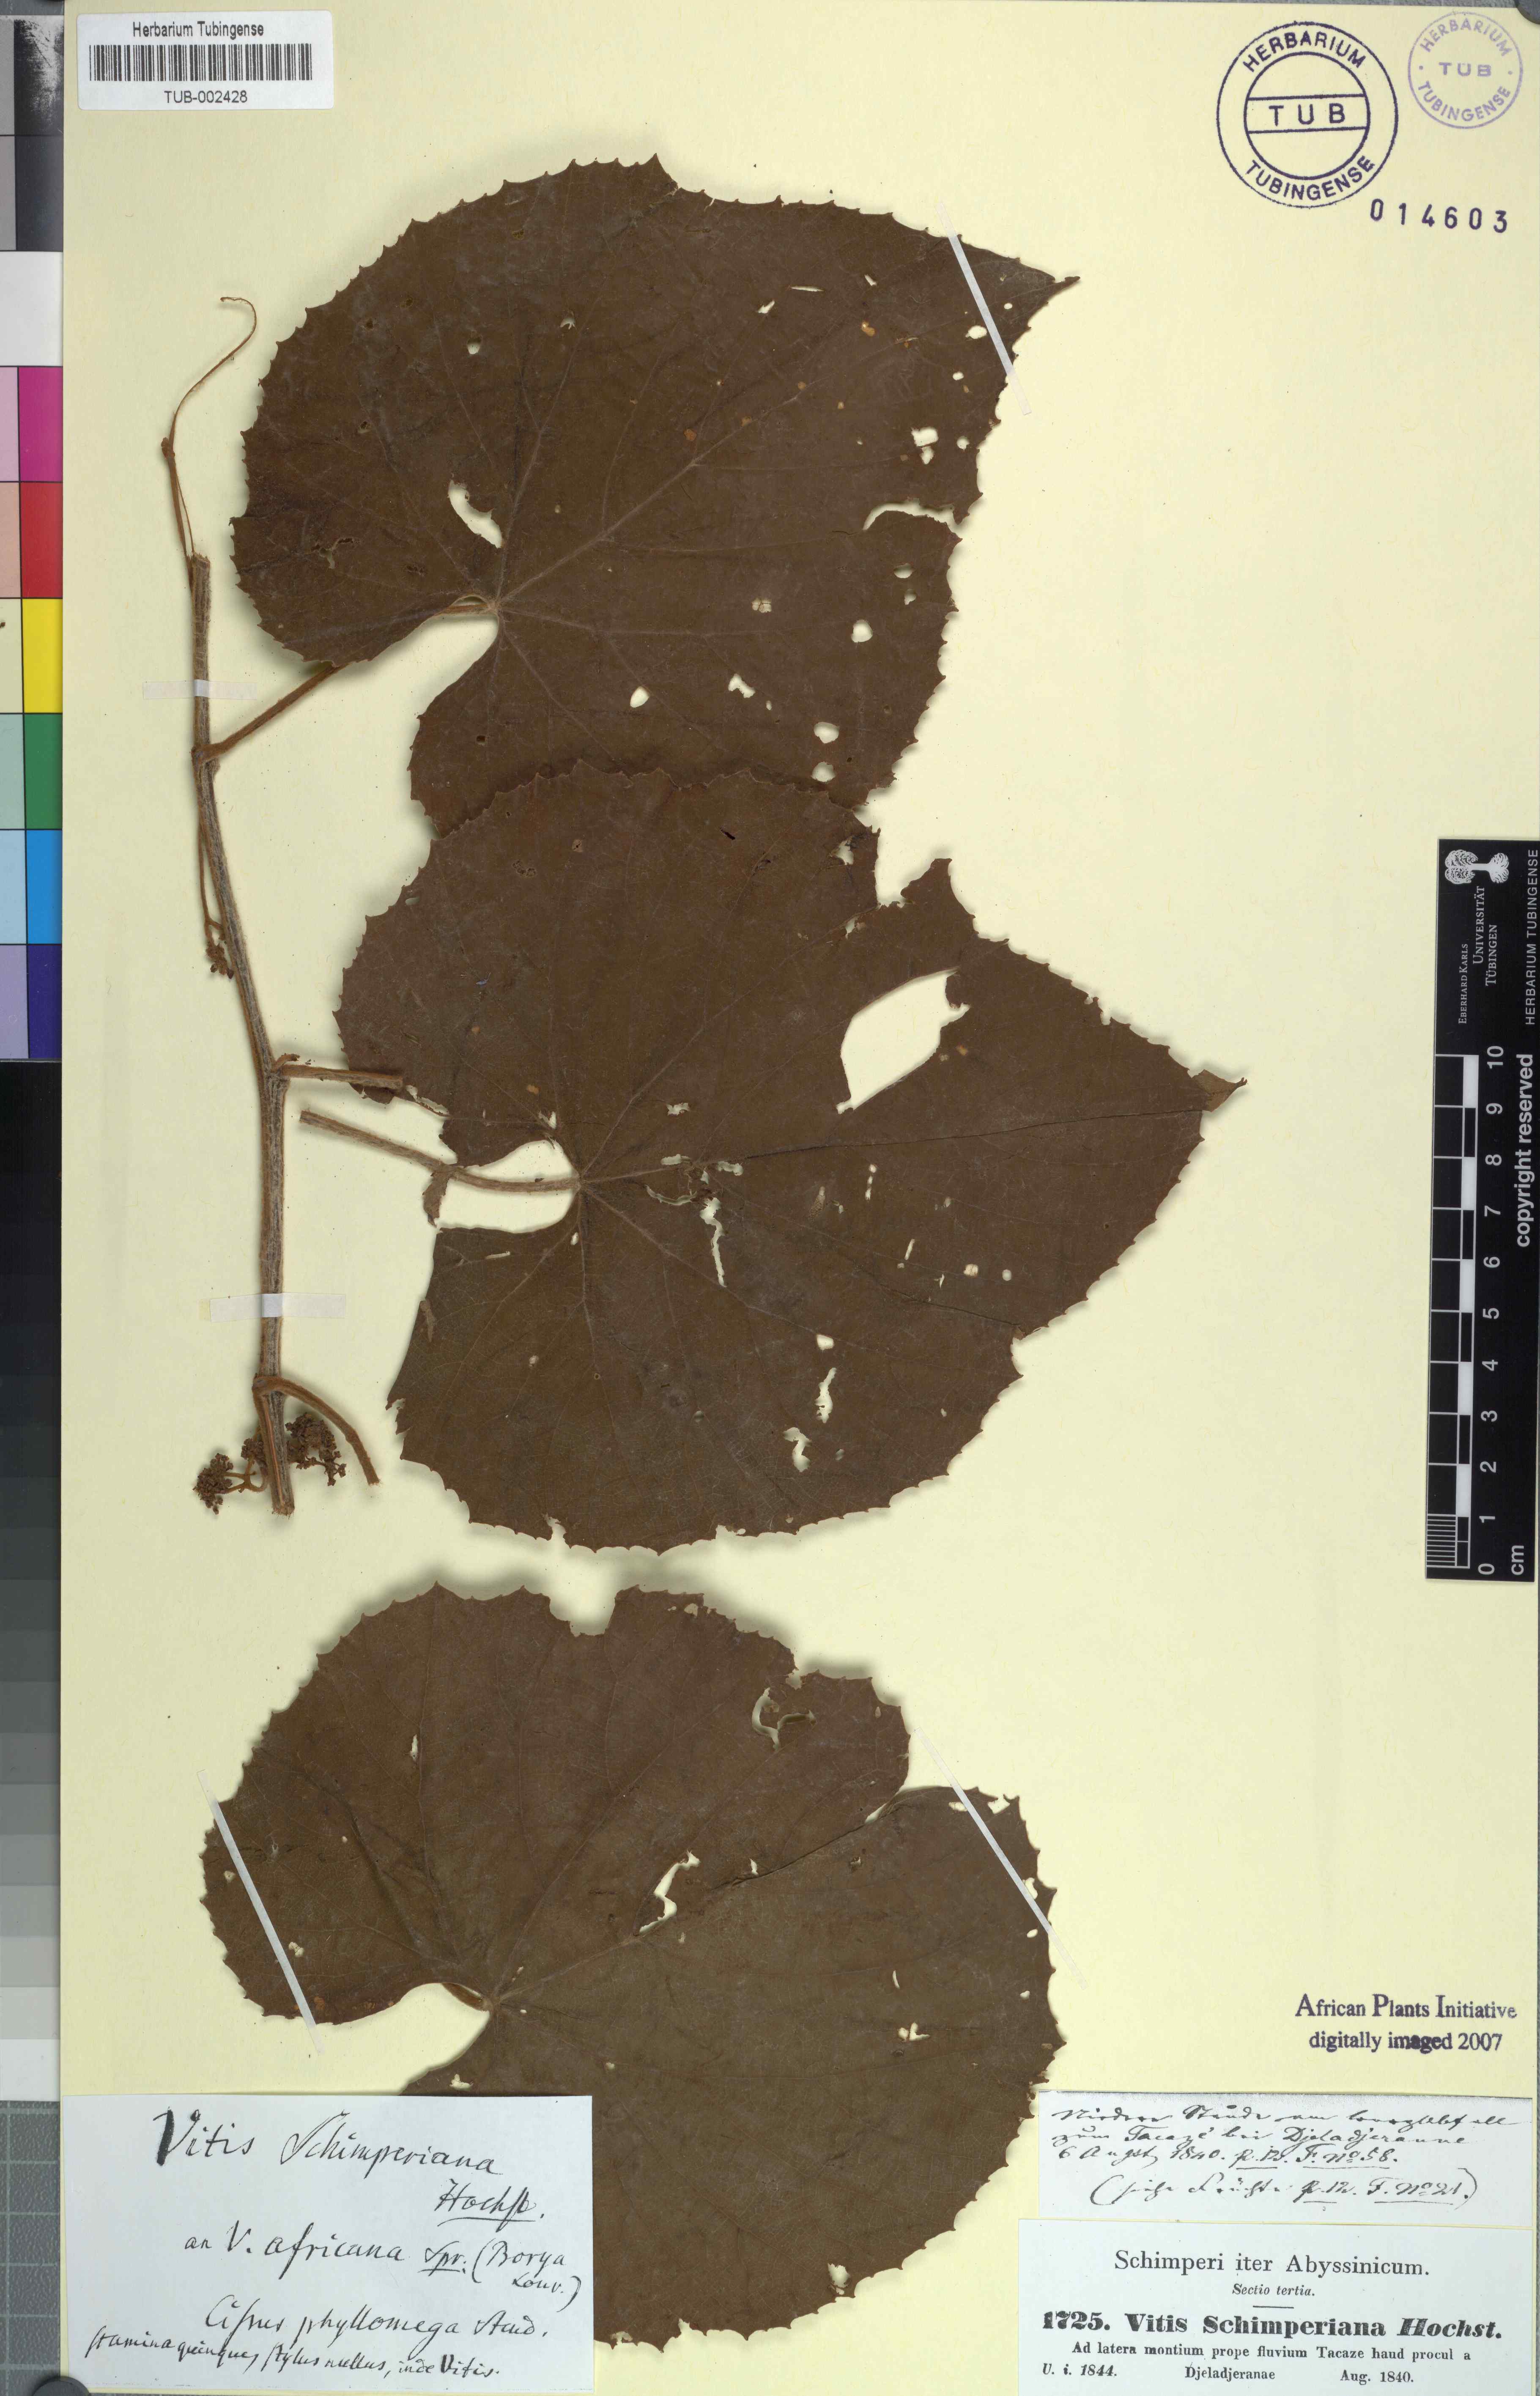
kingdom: Plantae
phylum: Tracheophyta
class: Magnoliopsida
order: Vitales
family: Vitaceae
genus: Ampelocissus
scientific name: Ampelocissus schimperiana
